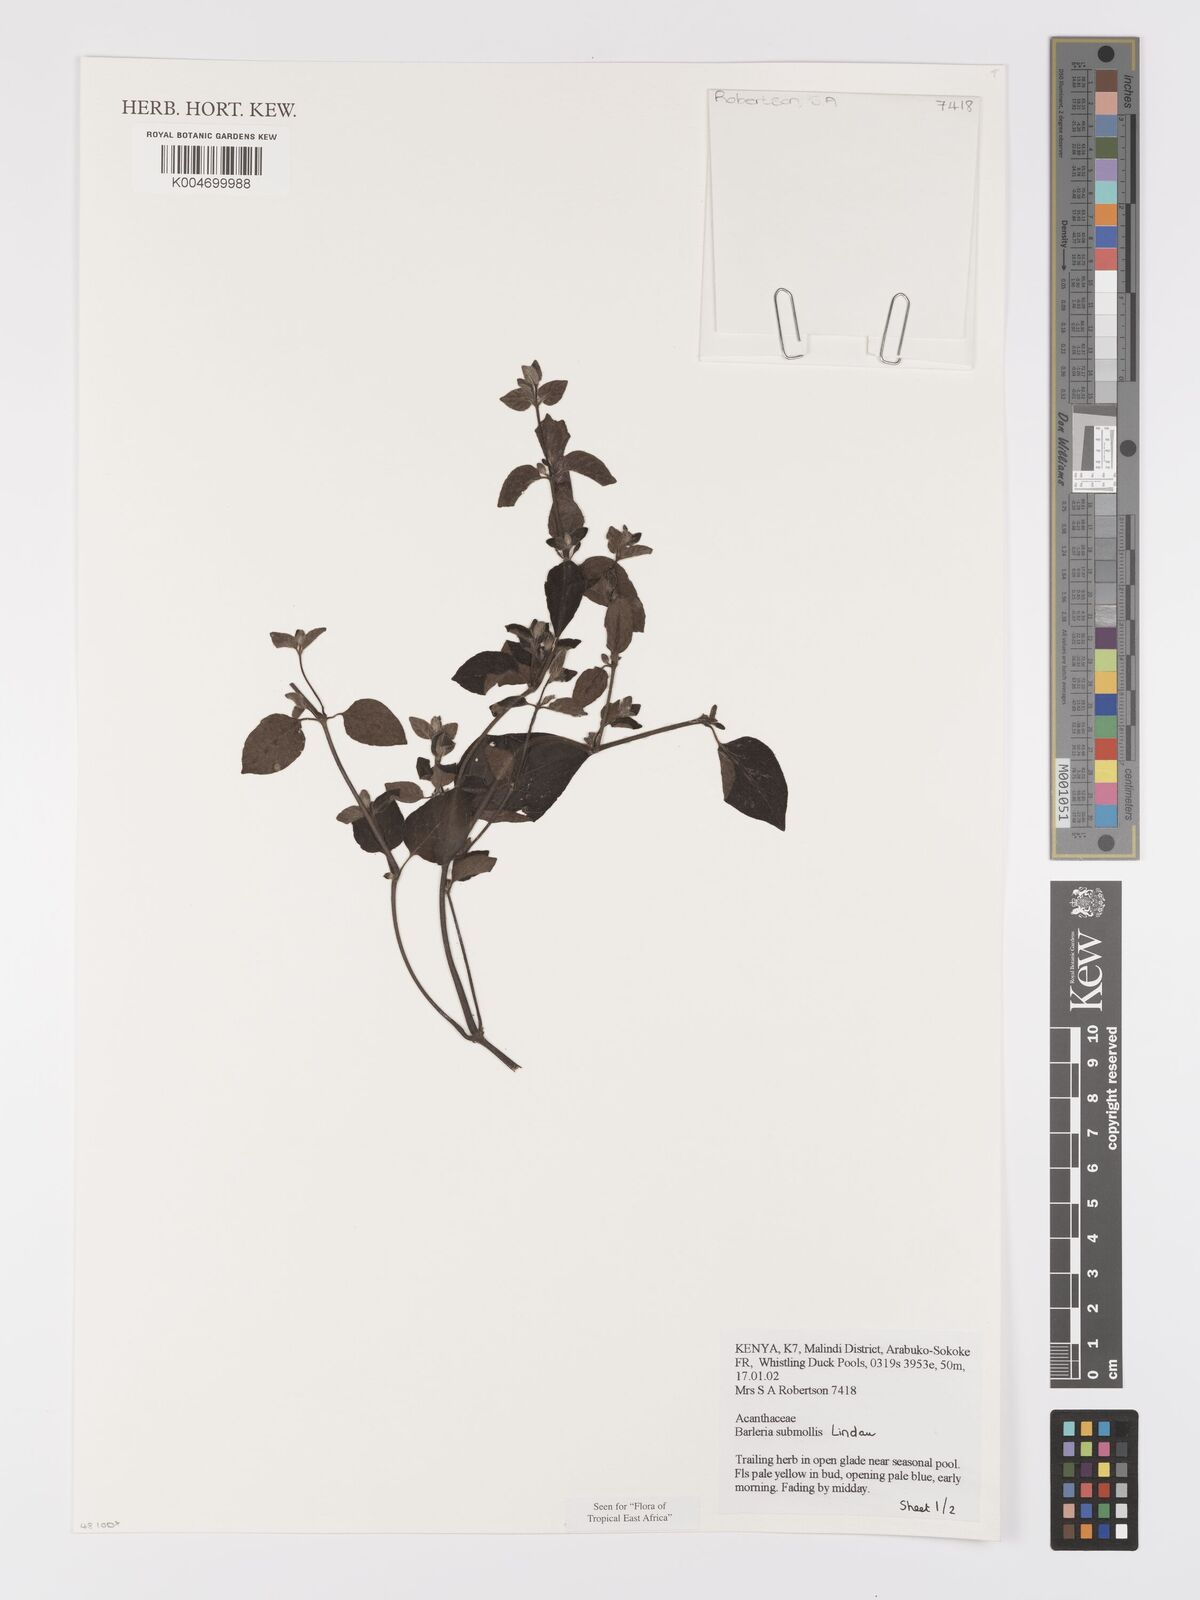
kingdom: Plantae
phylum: Tracheophyta
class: Magnoliopsida
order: Lamiales
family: Acanthaceae
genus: Barleria
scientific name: Barleria submollis
